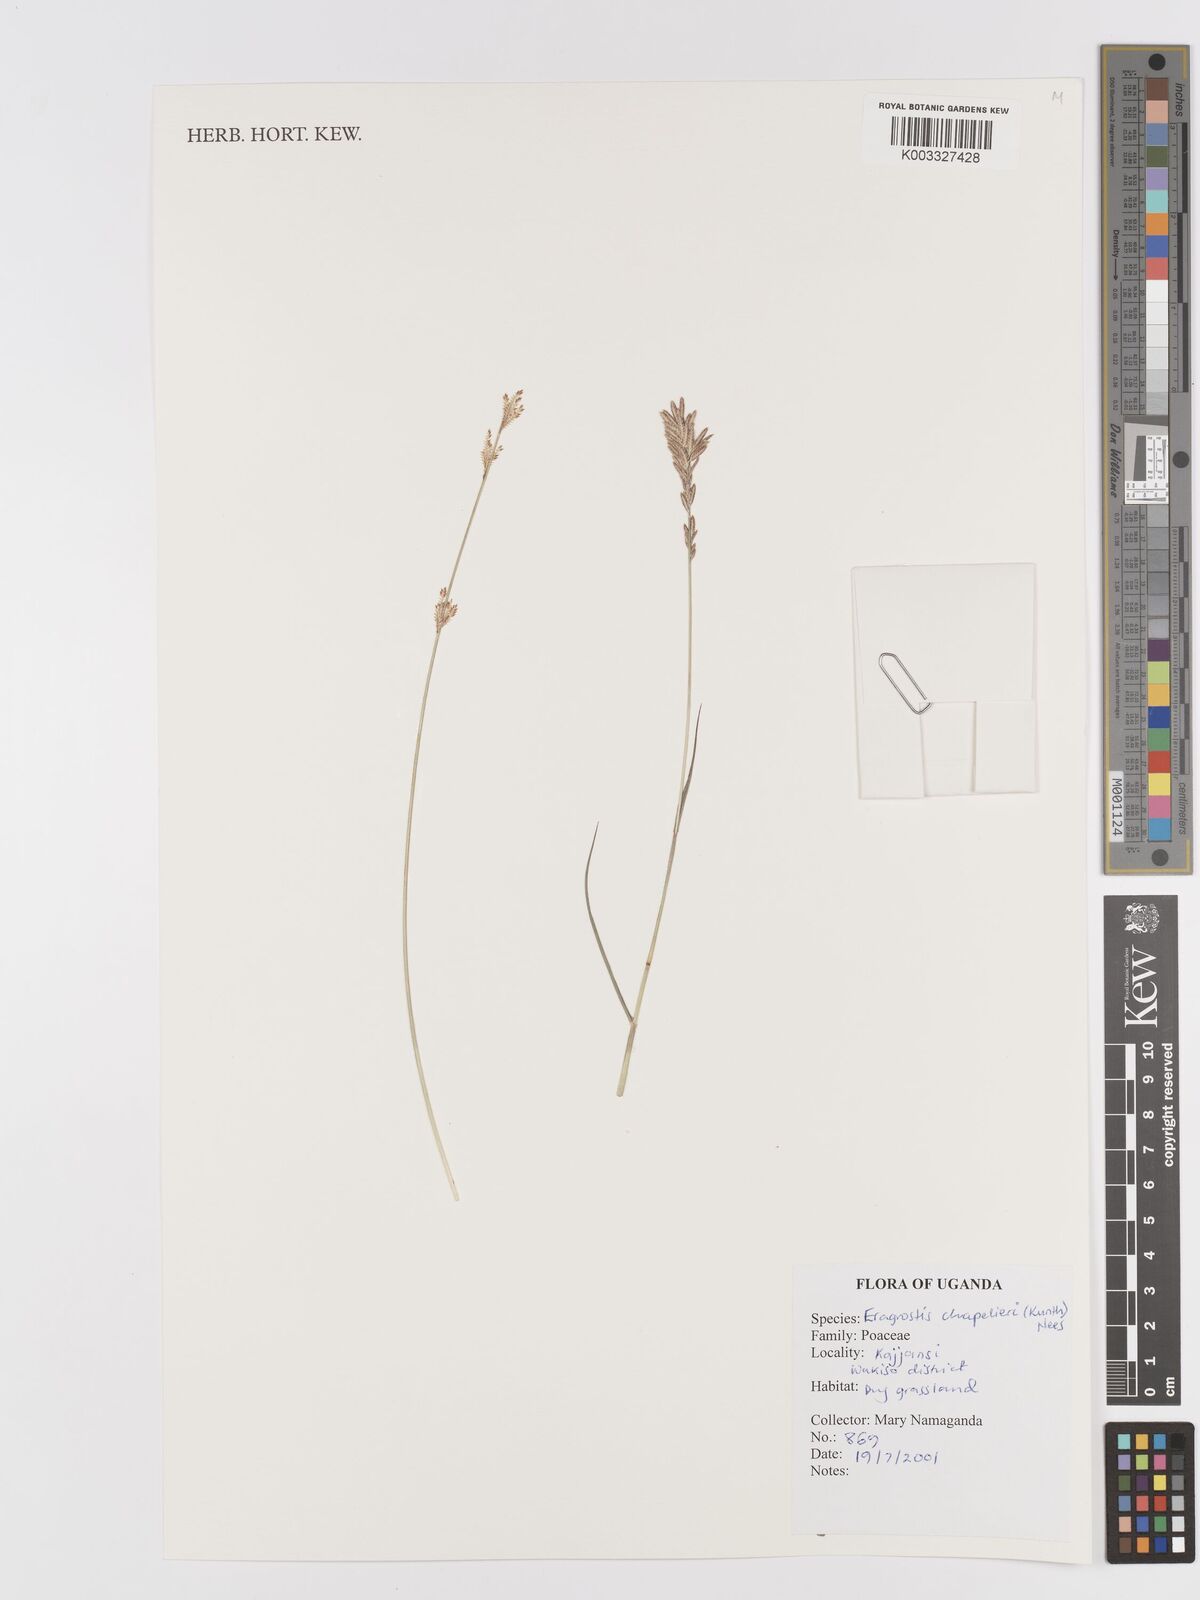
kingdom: Plantae
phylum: Tracheophyta
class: Liliopsida
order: Poales
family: Poaceae
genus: Eragrostis
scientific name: Eragrostis chapelieri
